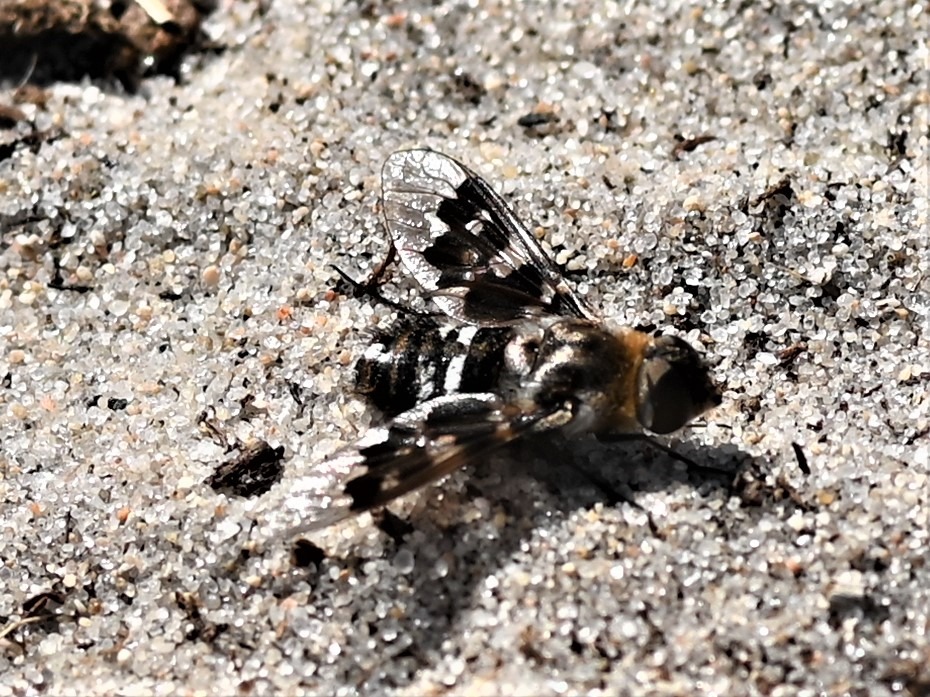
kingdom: Animalia
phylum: Arthropoda
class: Insecta
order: Diptera
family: Bombyliidae
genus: Thyridanthrax
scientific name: Thyridanthrax fenestratus
